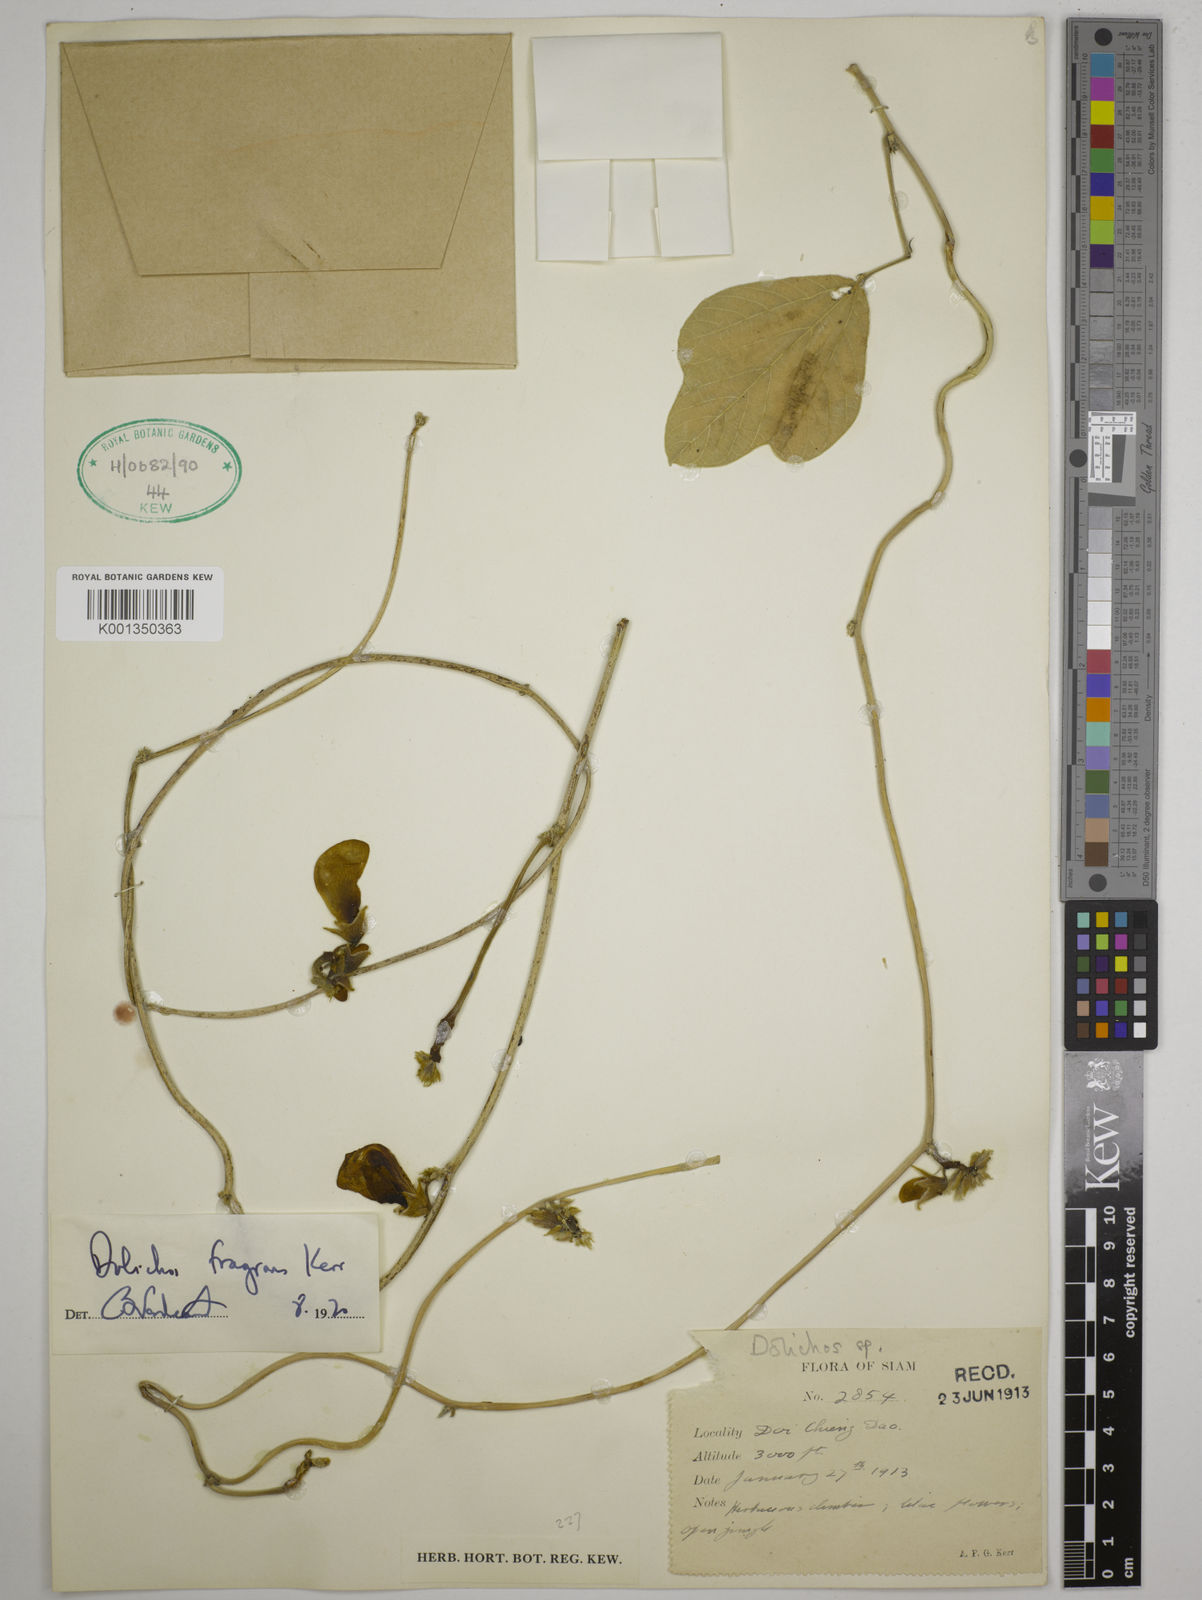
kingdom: Plantae
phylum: Tracheophyta
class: Magnoliopsida
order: Fabales
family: Fabaceae
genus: Dolichos
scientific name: Dolichos fragrans
